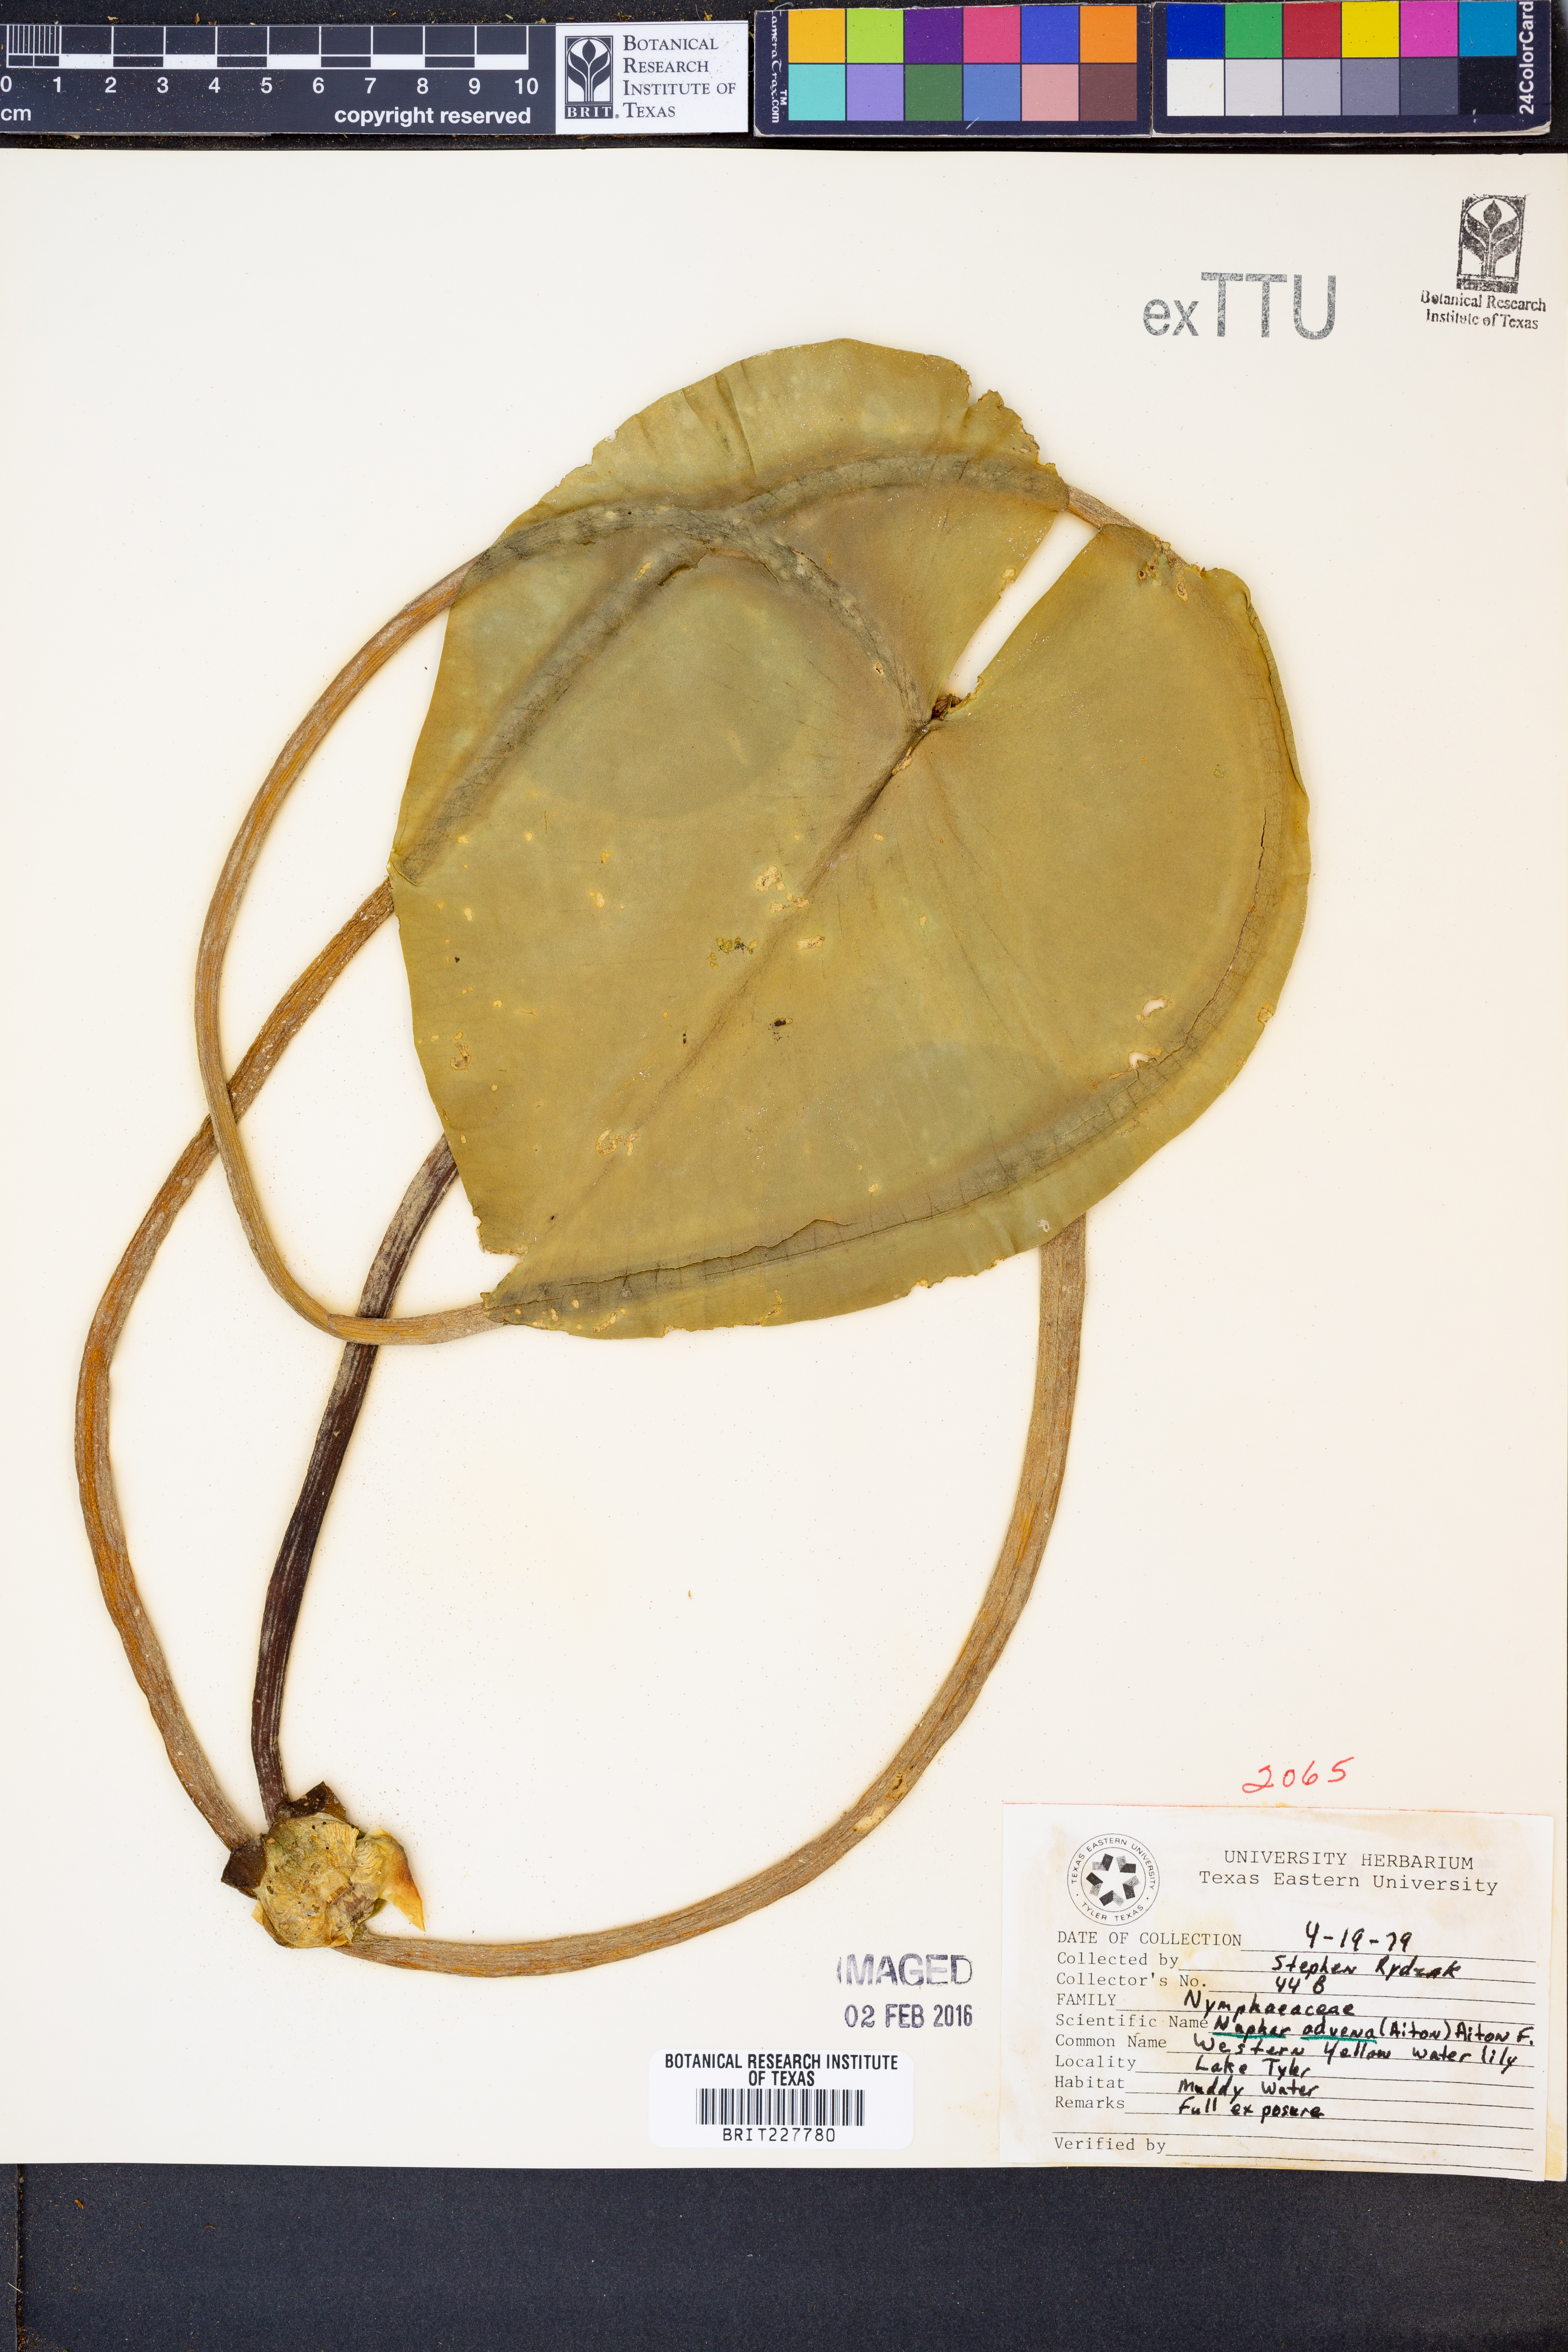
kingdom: Plantae
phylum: Tracheophyta
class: Magnoliopsida
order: Nymphaeales
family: Nymphaeaceae
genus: Nuphar
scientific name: Nuphar advena
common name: Spatter-dock
